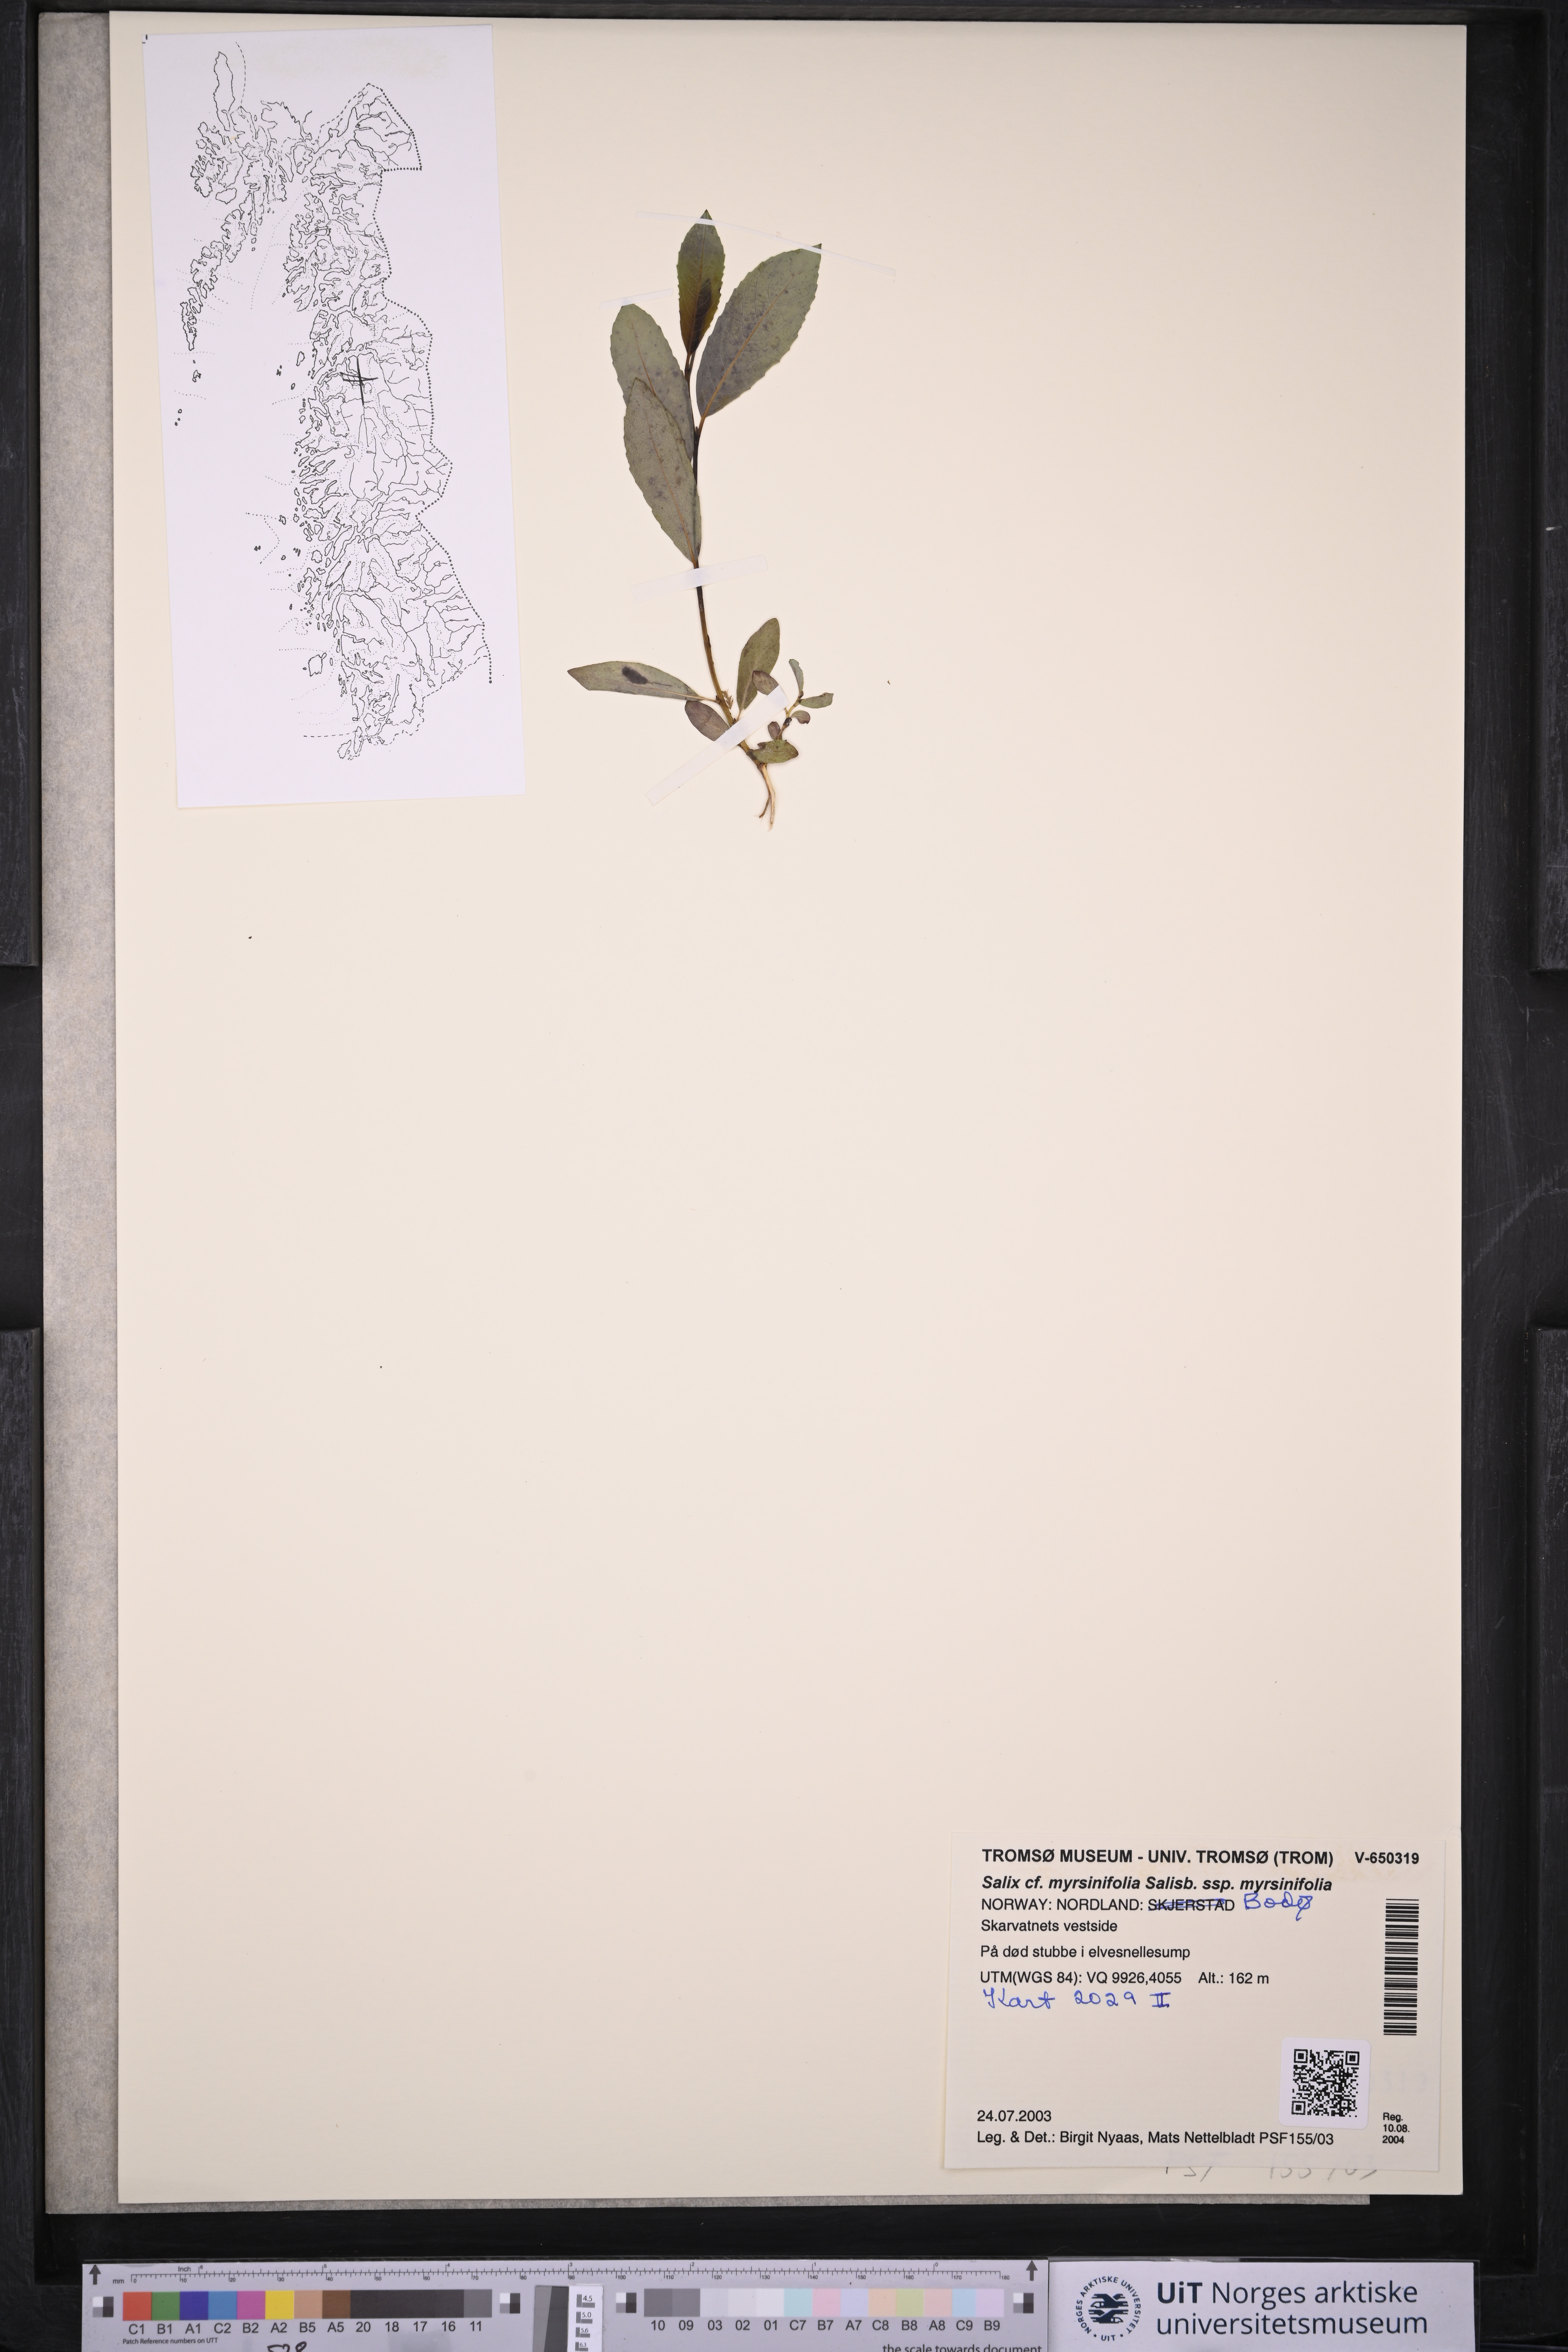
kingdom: Plantae
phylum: Tracheophyta
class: Magnoliopsida
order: Malpighiales
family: Salicaceae
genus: Salix
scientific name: Salix myrsinifolia
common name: Dark-leaved willow
